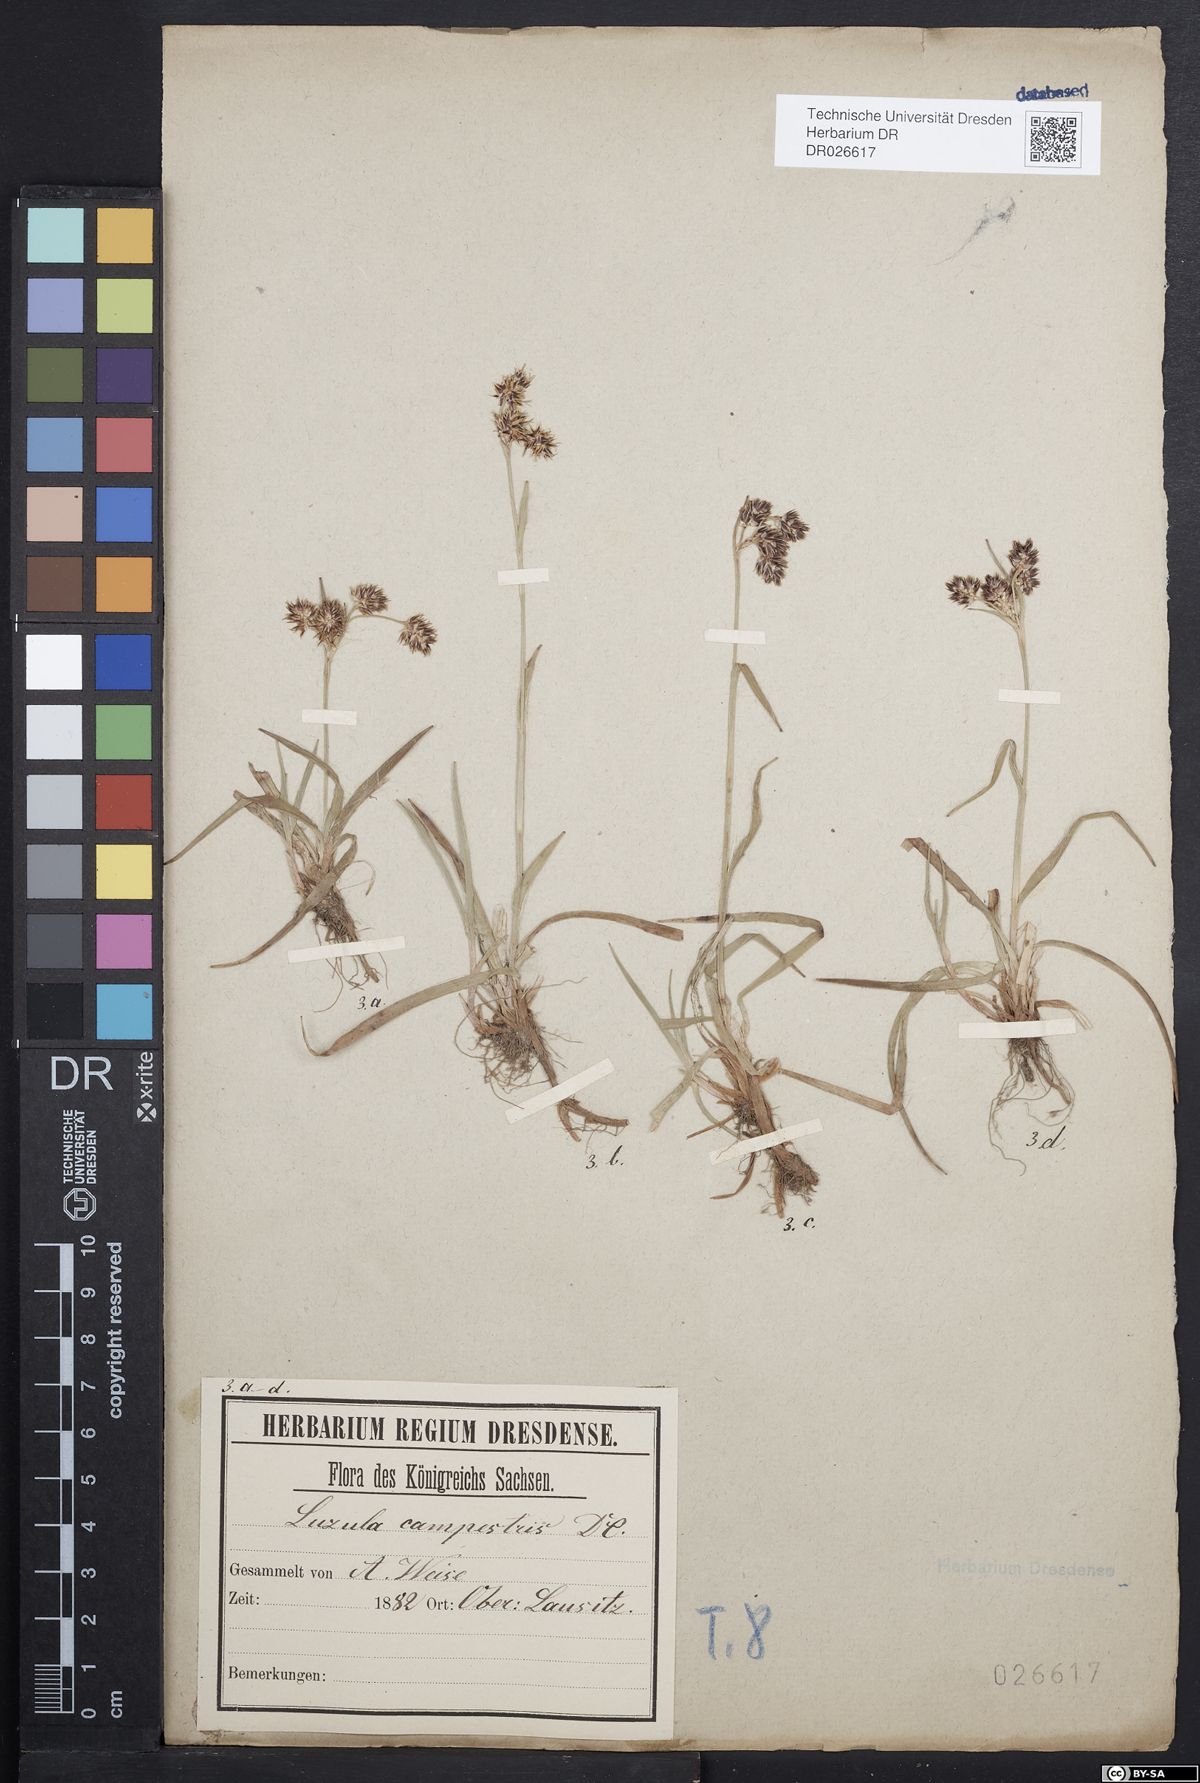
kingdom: Plantae
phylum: Tracheophyta
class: Liliopsida
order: Poales
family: Juncaceae
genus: Luzula
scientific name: Luzula campestris
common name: Field wood-rush
